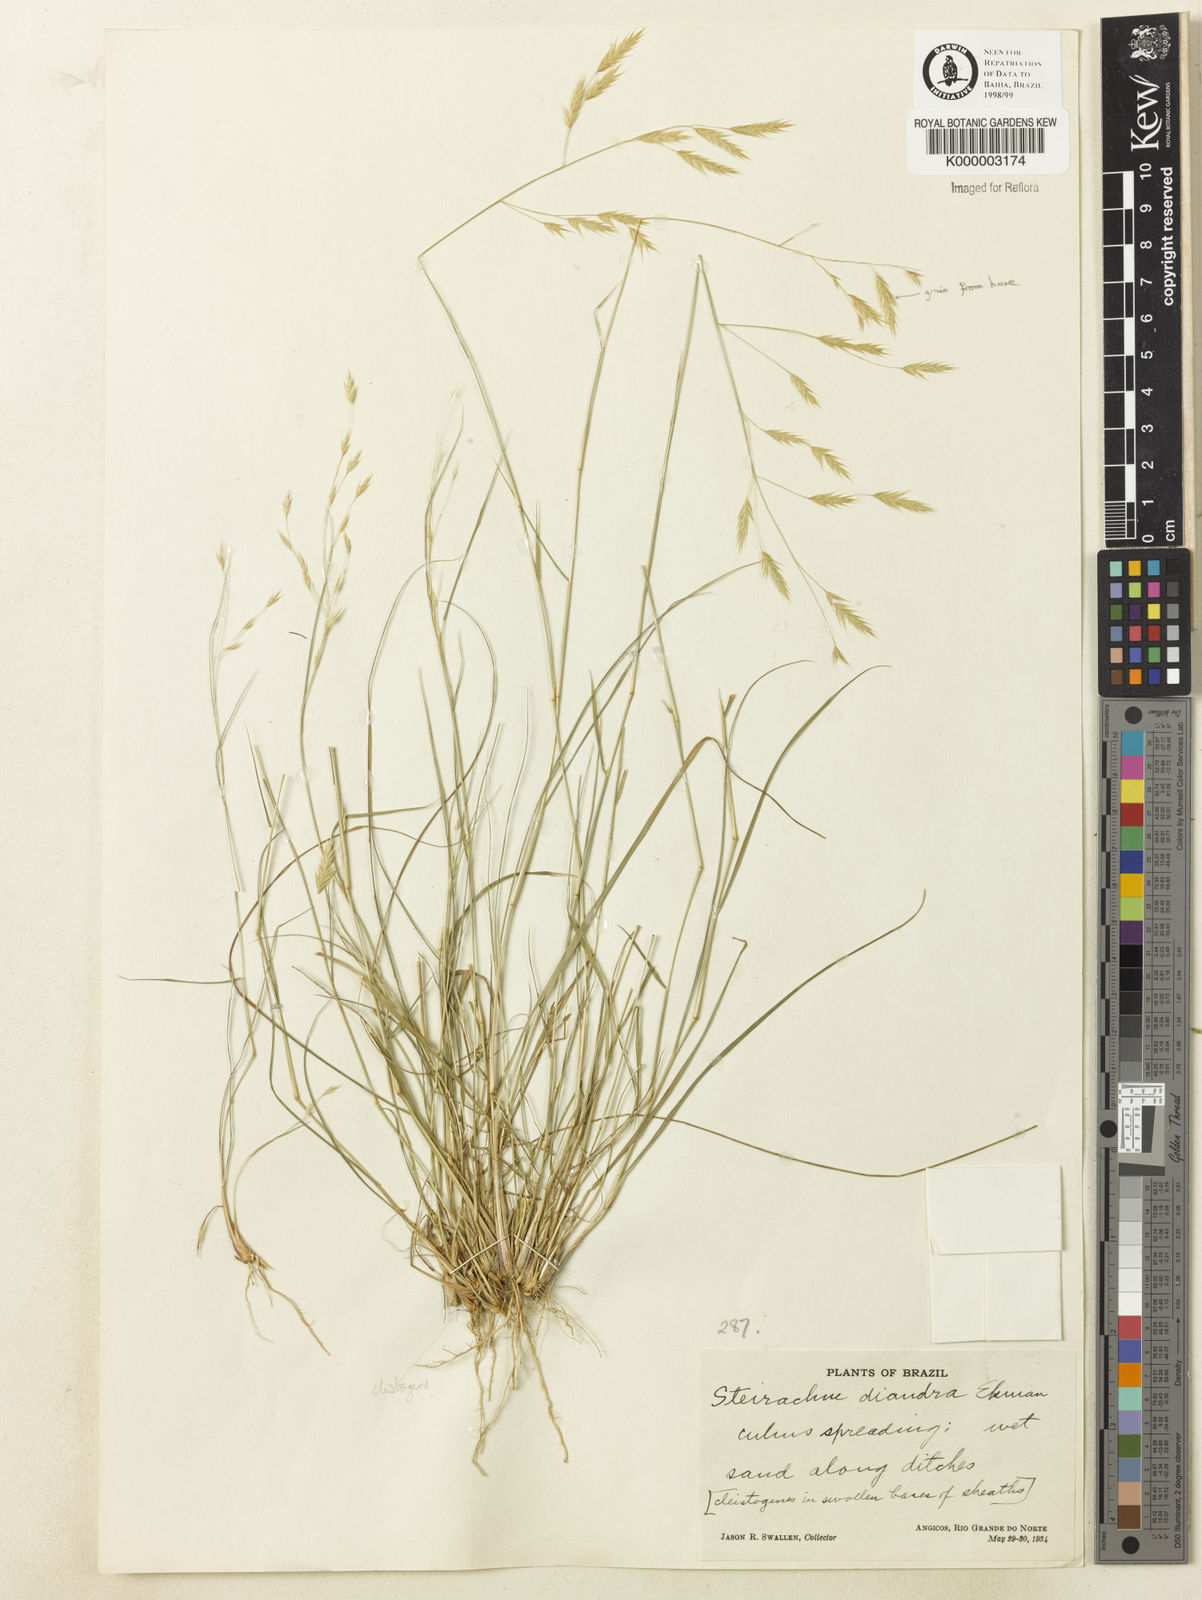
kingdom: Plantae
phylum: Tracheophyta
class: Liliopsida
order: Poales
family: Poaceae
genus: Steirachne
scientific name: Steirachne diandra
